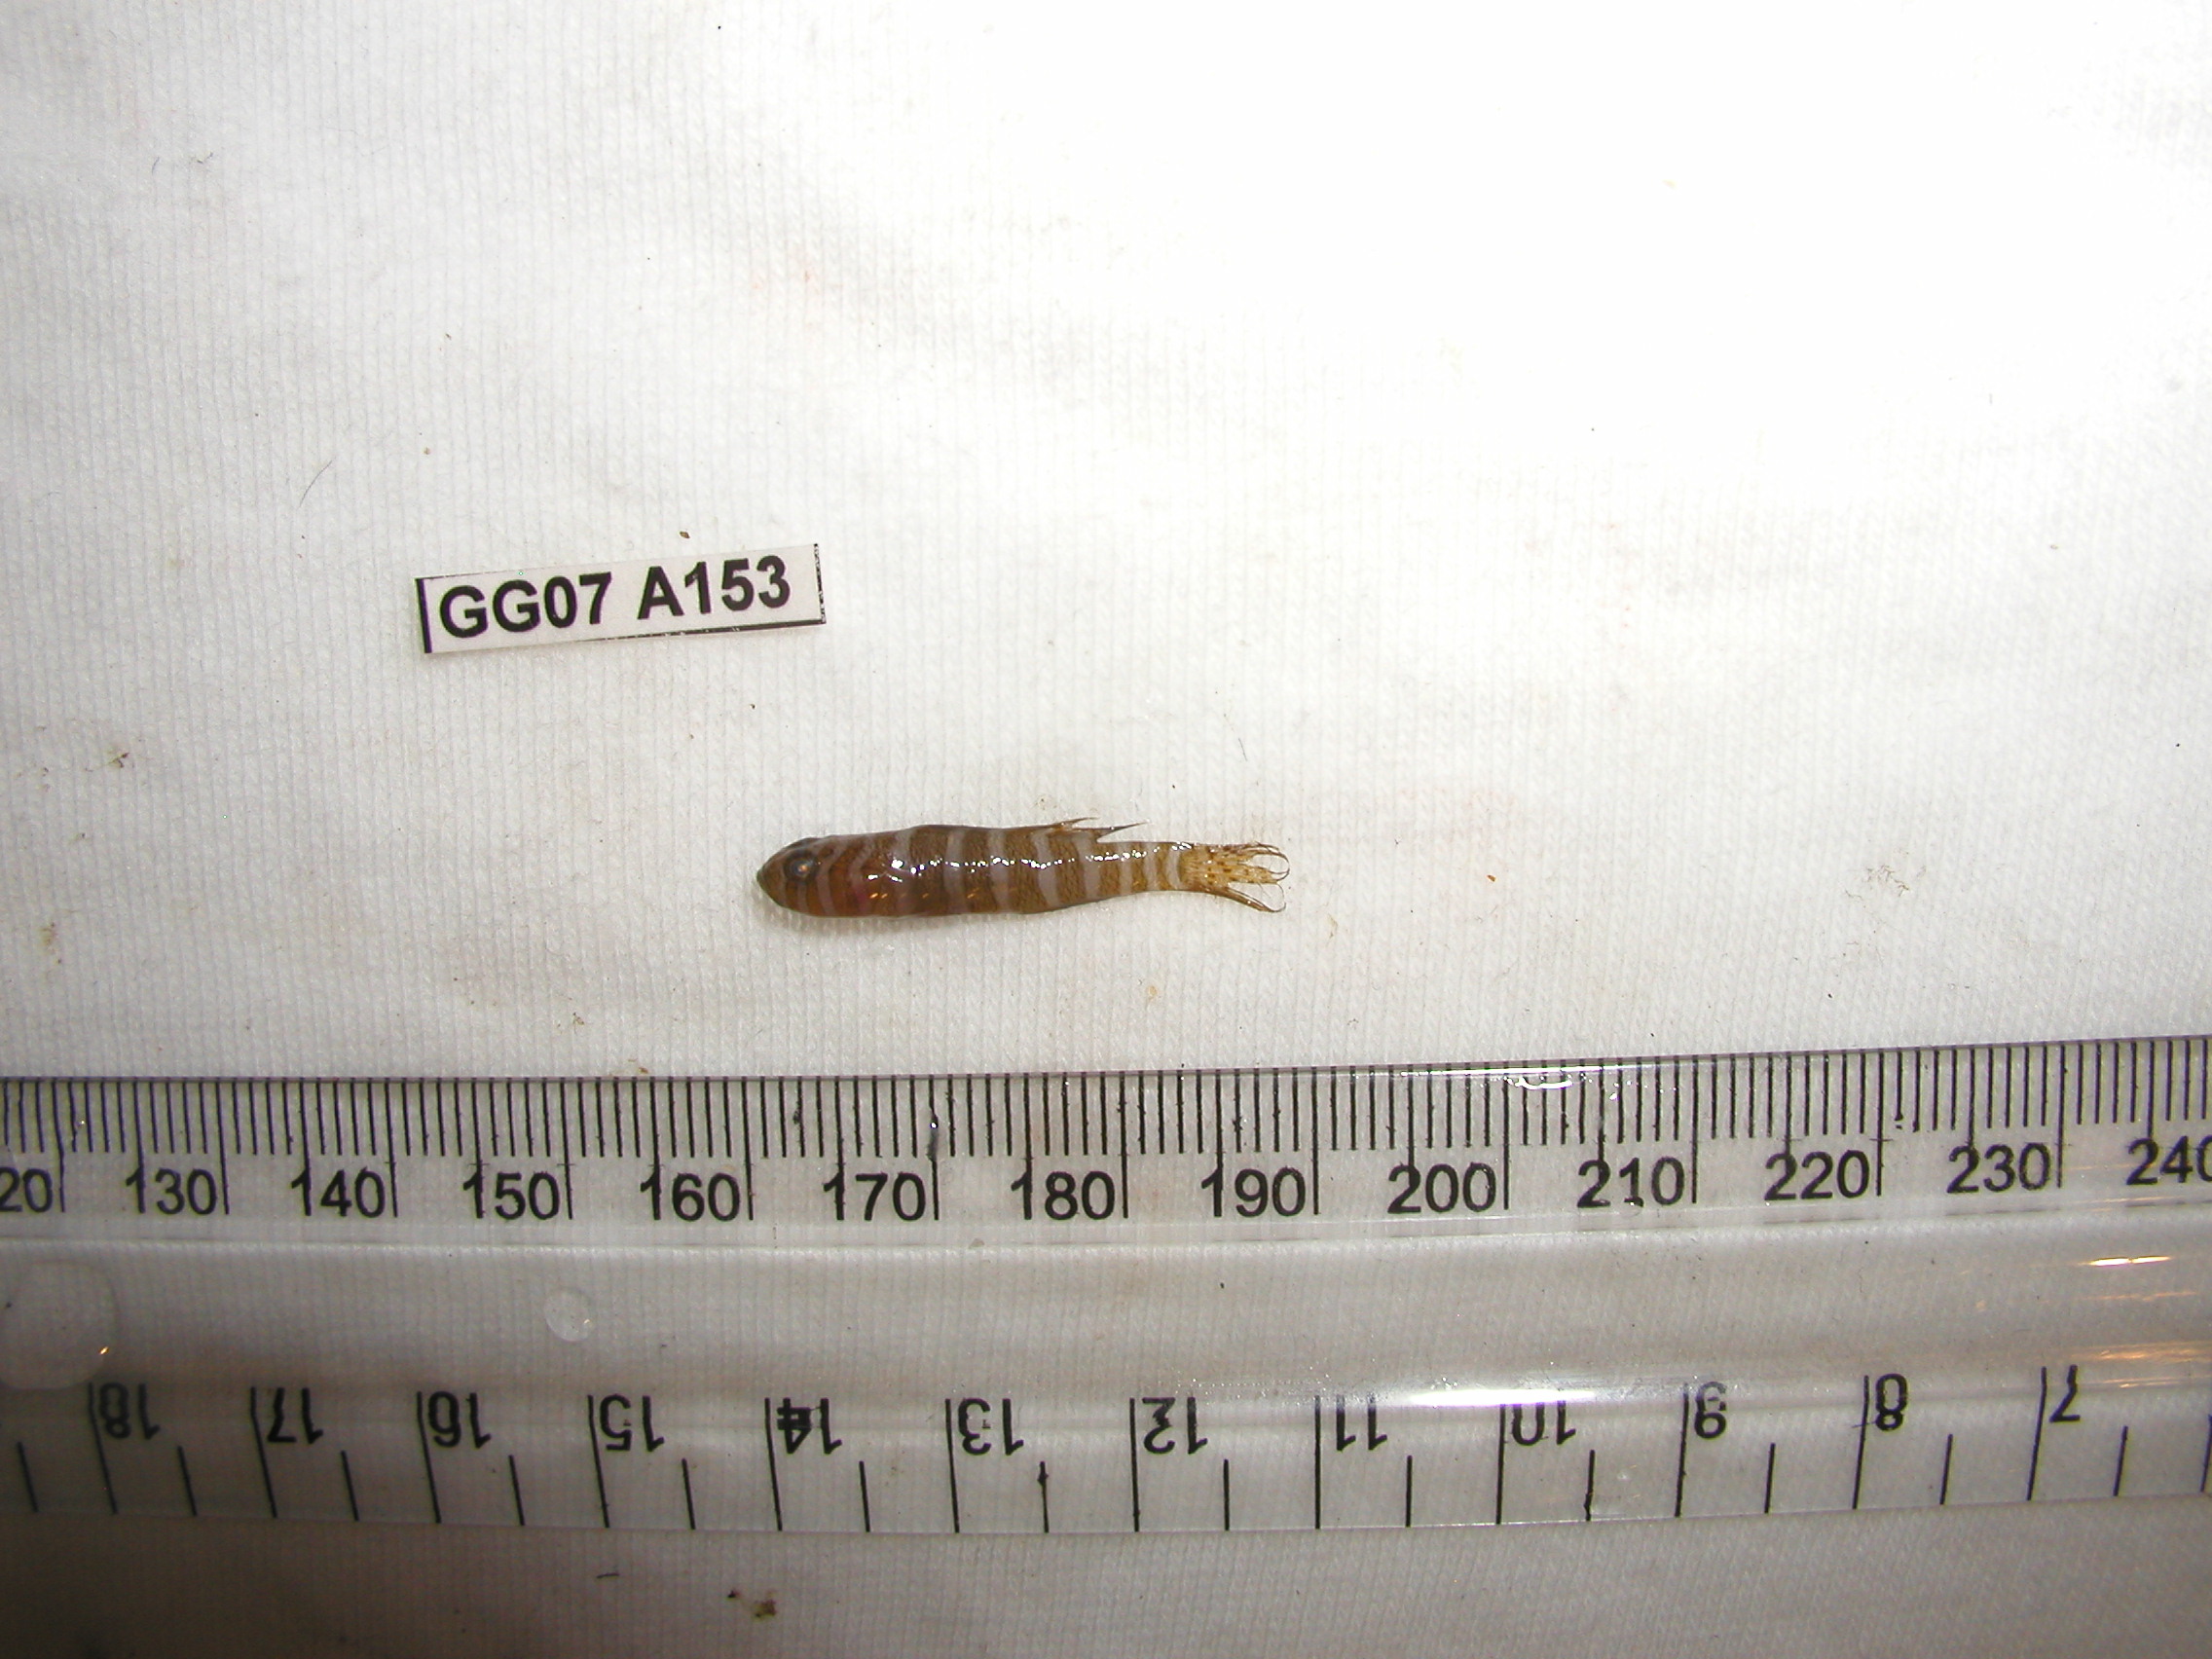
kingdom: Animalia
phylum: Chordata
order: Perciformes
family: Gobiidae
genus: Priolepis
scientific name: Priolepis cincta
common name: Banded reef-goby
